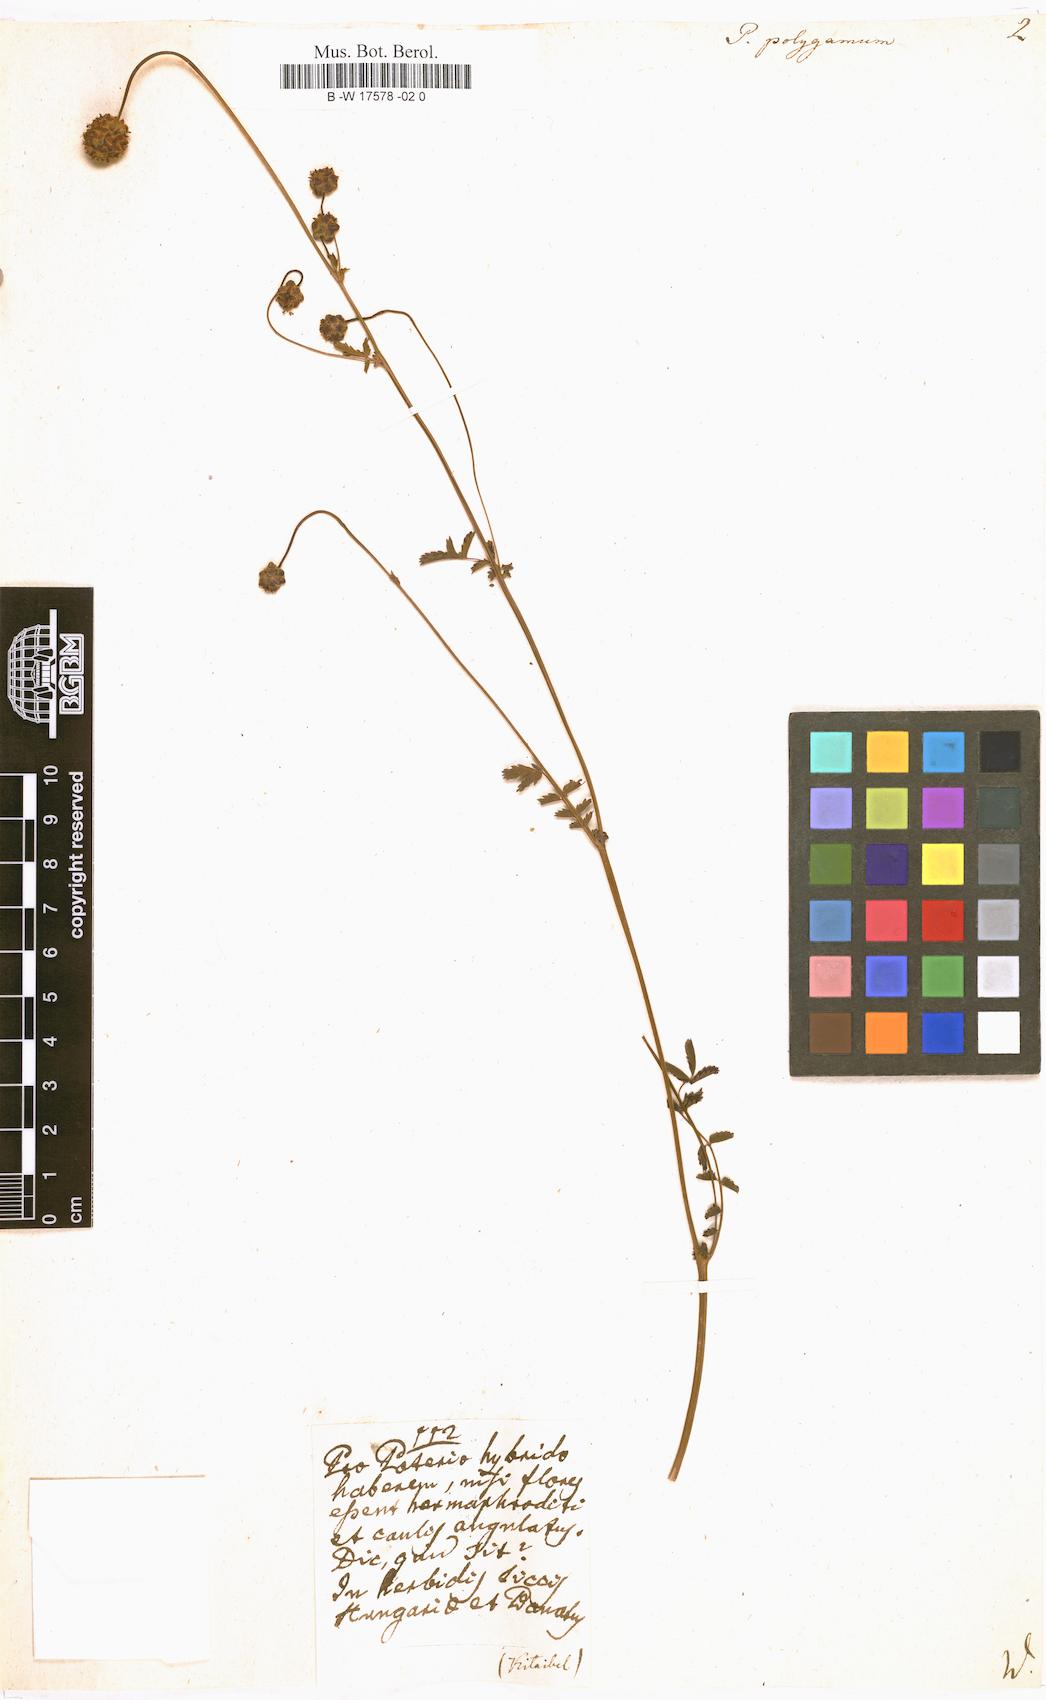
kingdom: Plantae
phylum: Tracheophyta
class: Magnoliopsida
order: Rosales
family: Rosaceae
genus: Poterium
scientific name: Poterium sanguisorba
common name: Salad burnet
